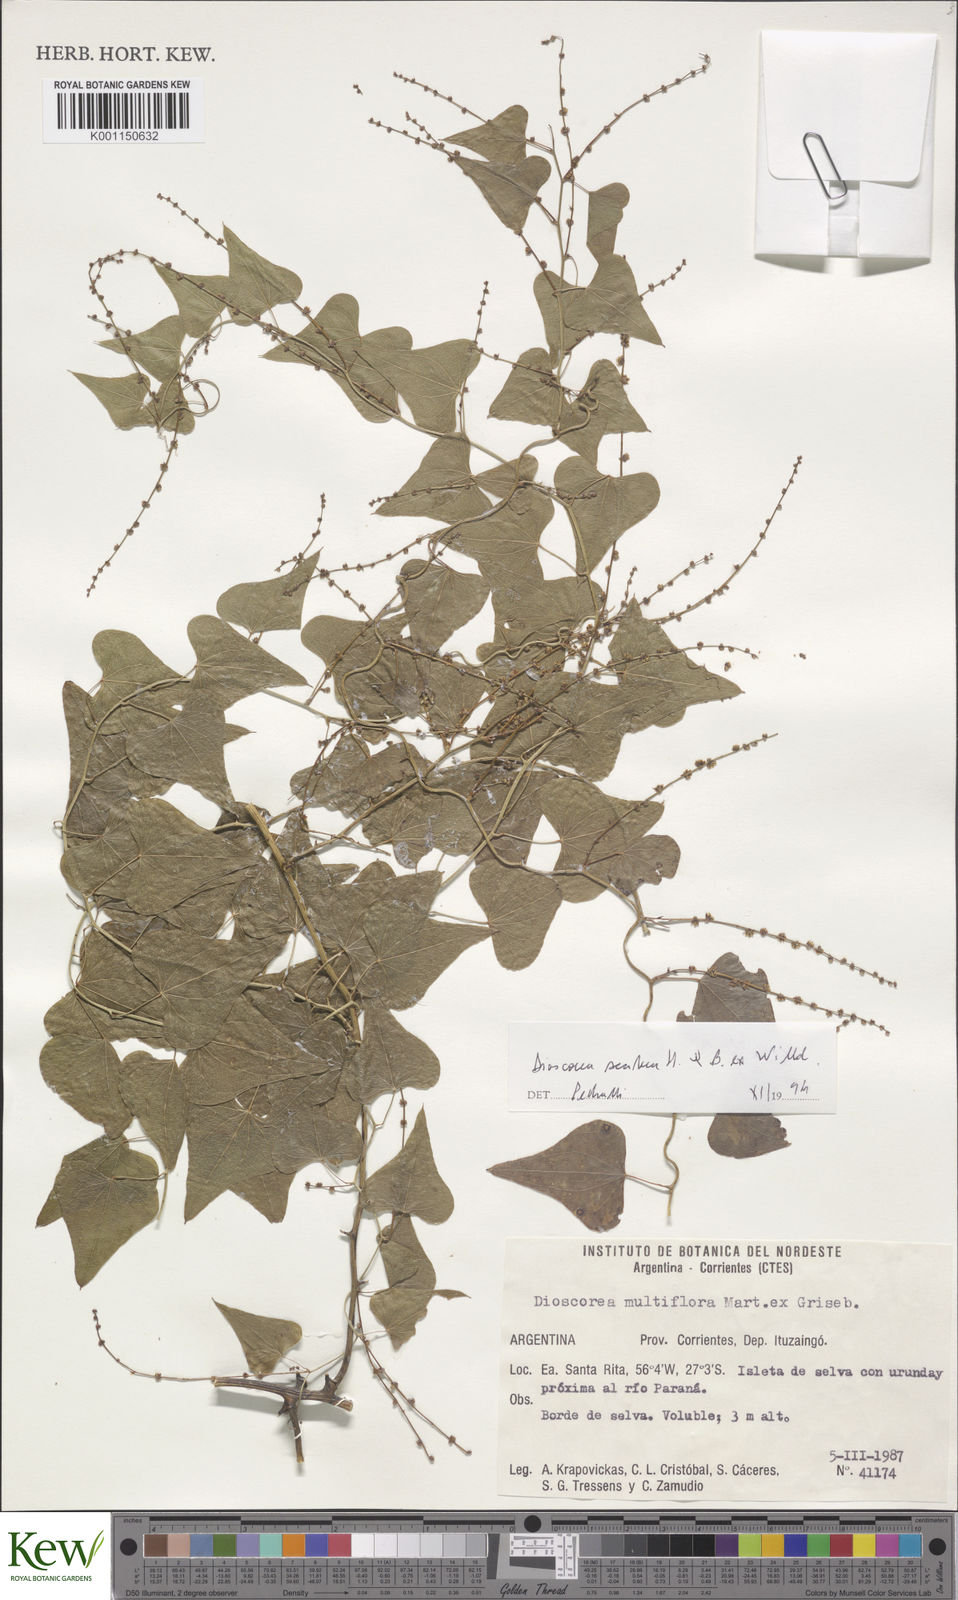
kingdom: Plantae
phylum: Tracheophyta
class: Liliopsida
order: Dioscoreales
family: Dioscoreaceae
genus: Dioscorea
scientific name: Dioscorea scabra
